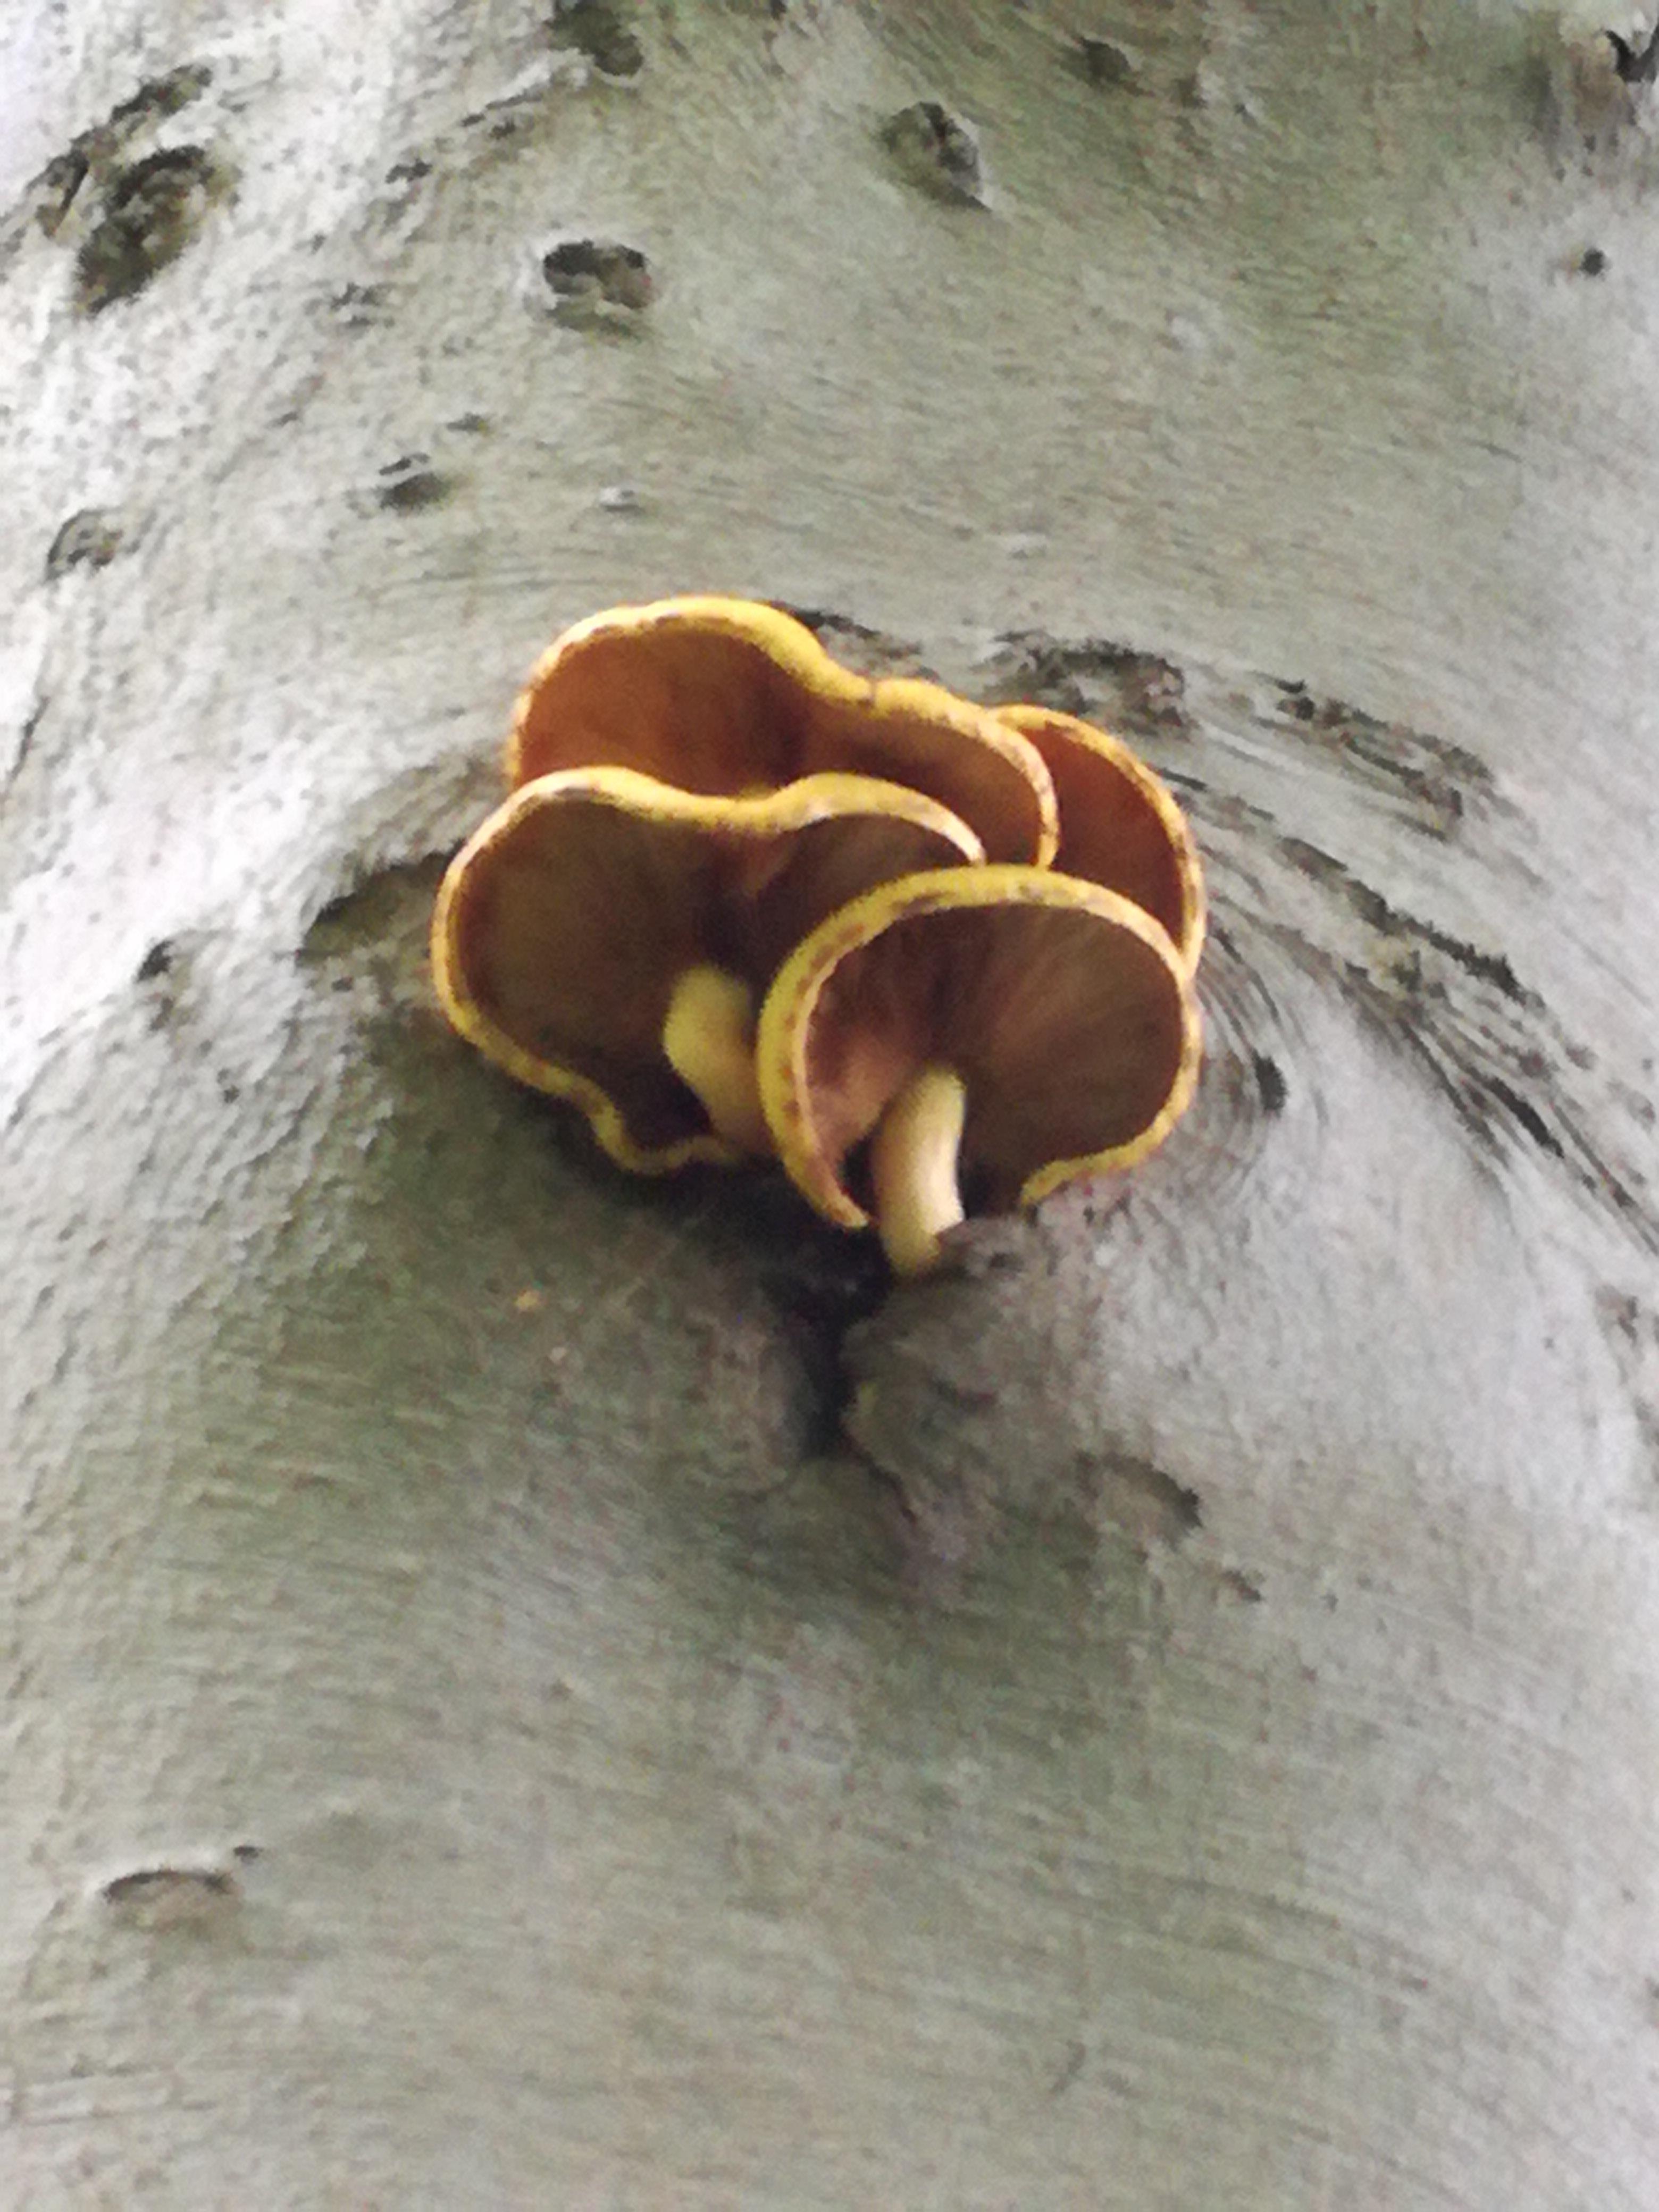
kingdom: Fungi
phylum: Basidiomycota
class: Agaricomycetes
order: Agaricales
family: Strophariaceae
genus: Pholiota
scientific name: Pholiota adiposa
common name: højtsiddende skælhat
